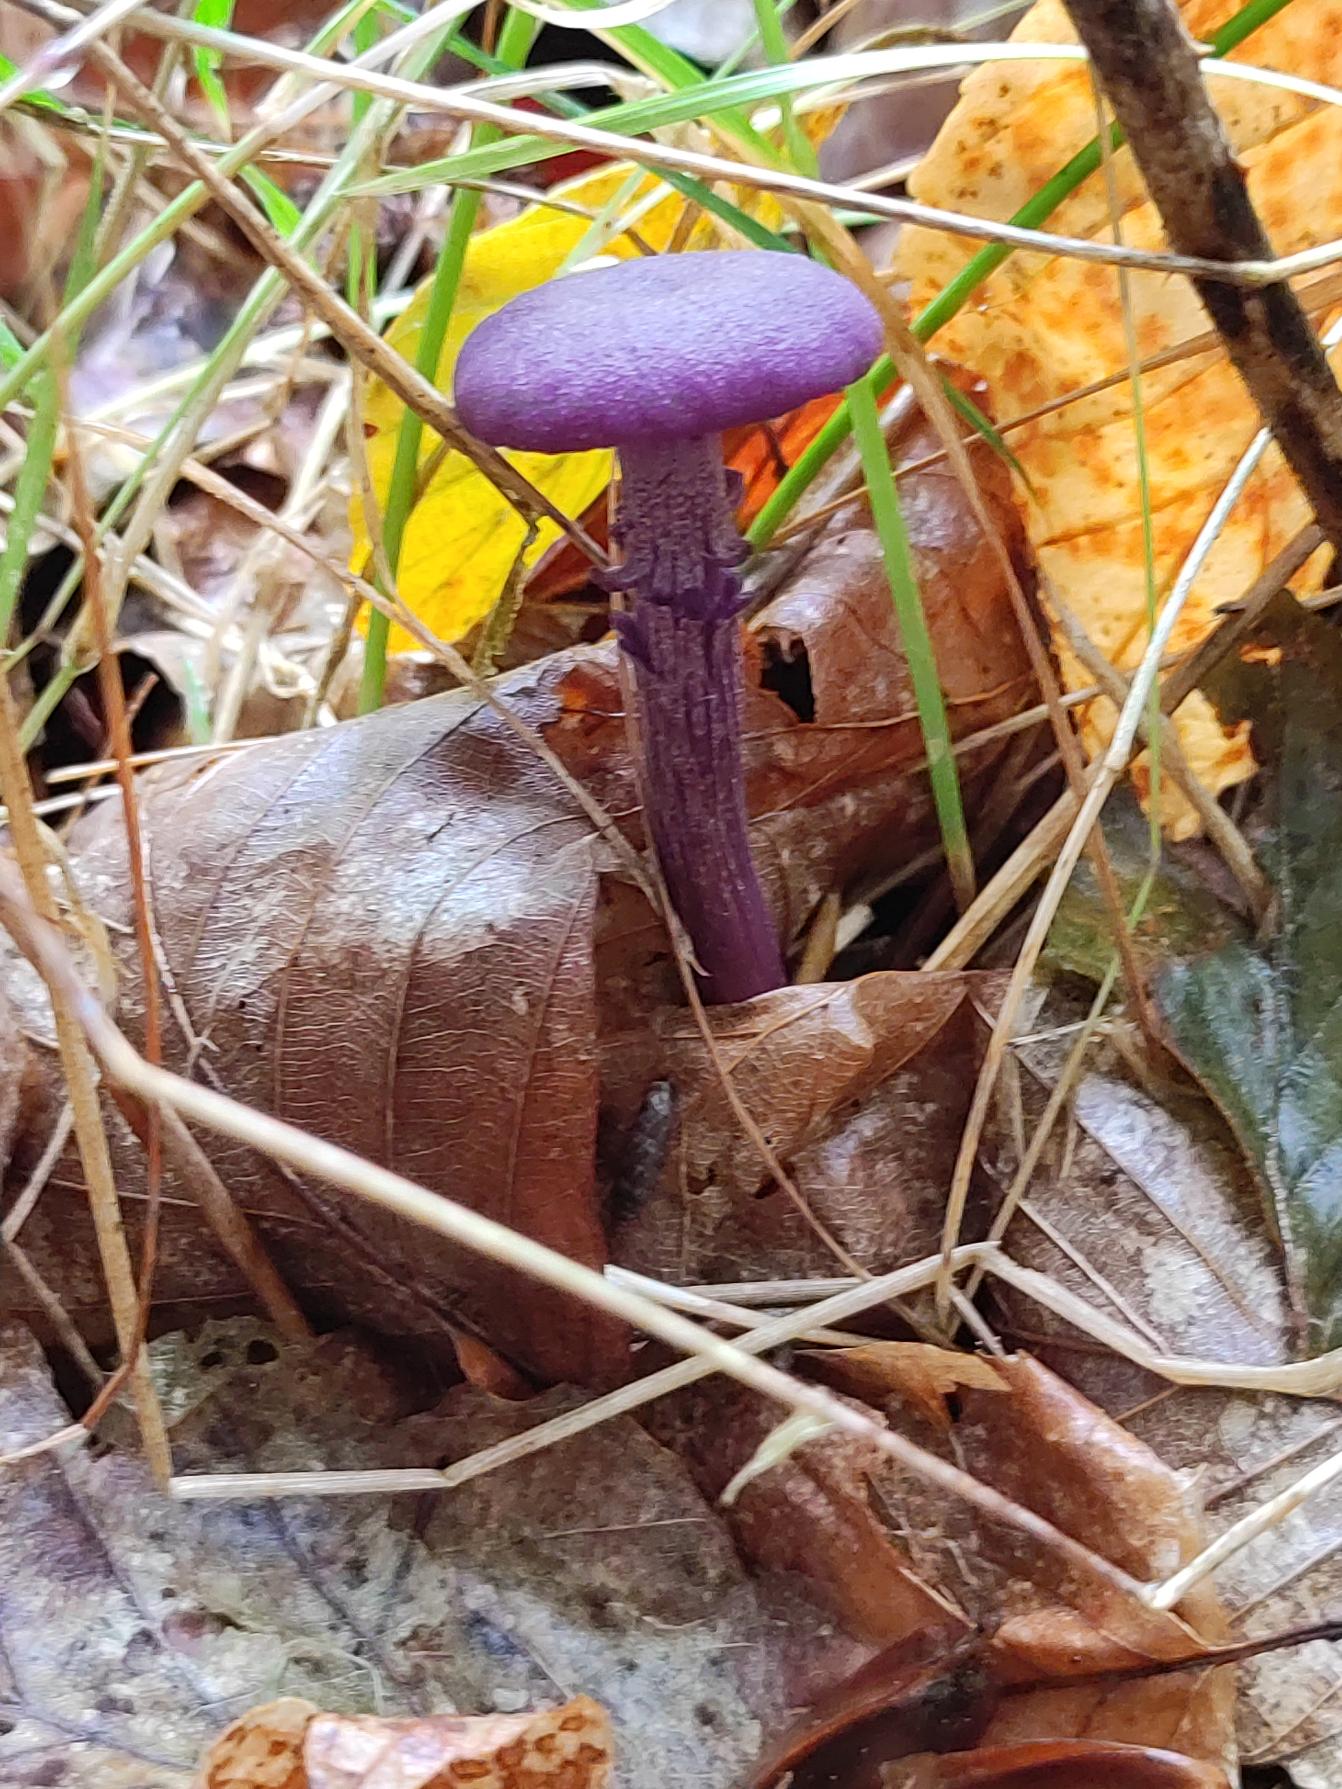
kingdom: Fungi
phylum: Basidiomycota
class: Agaricomycetes
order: Agaricales
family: Hydnangiaceae
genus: Laccaria
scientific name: Laccaria amethystina
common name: Violet ametysthat
